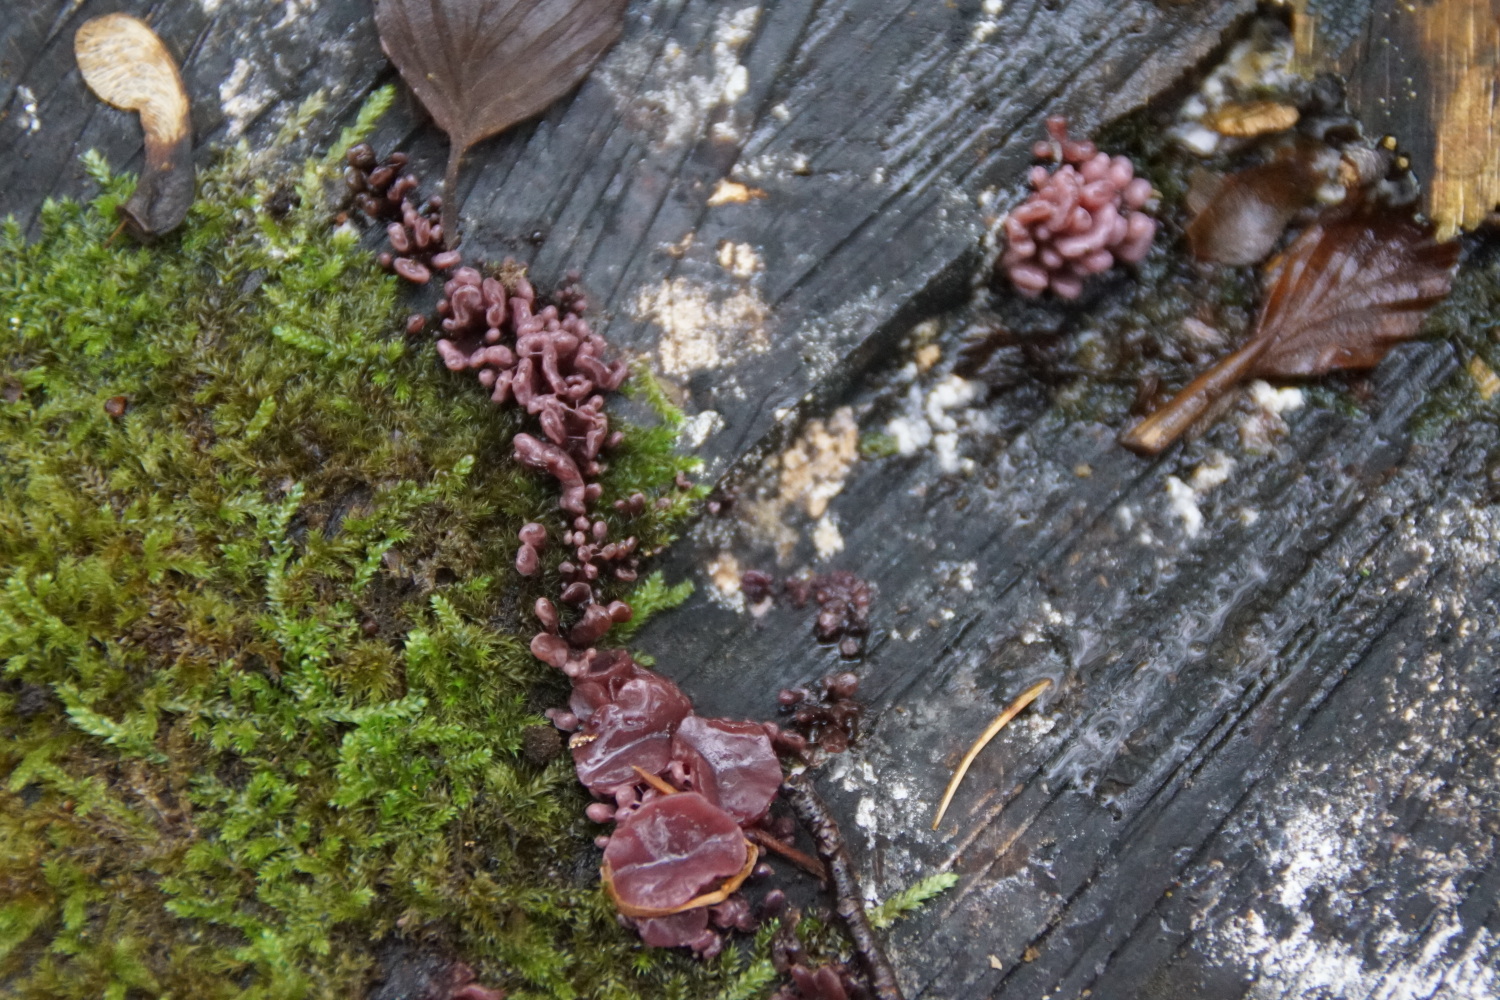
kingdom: Fungi
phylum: Ascomycota
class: Leotiomycetes
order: Helotiales
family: Gelatinodiscaceae
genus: Ascocoryne
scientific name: Ascocoryne sarcoides
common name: rødlilla sejskive
